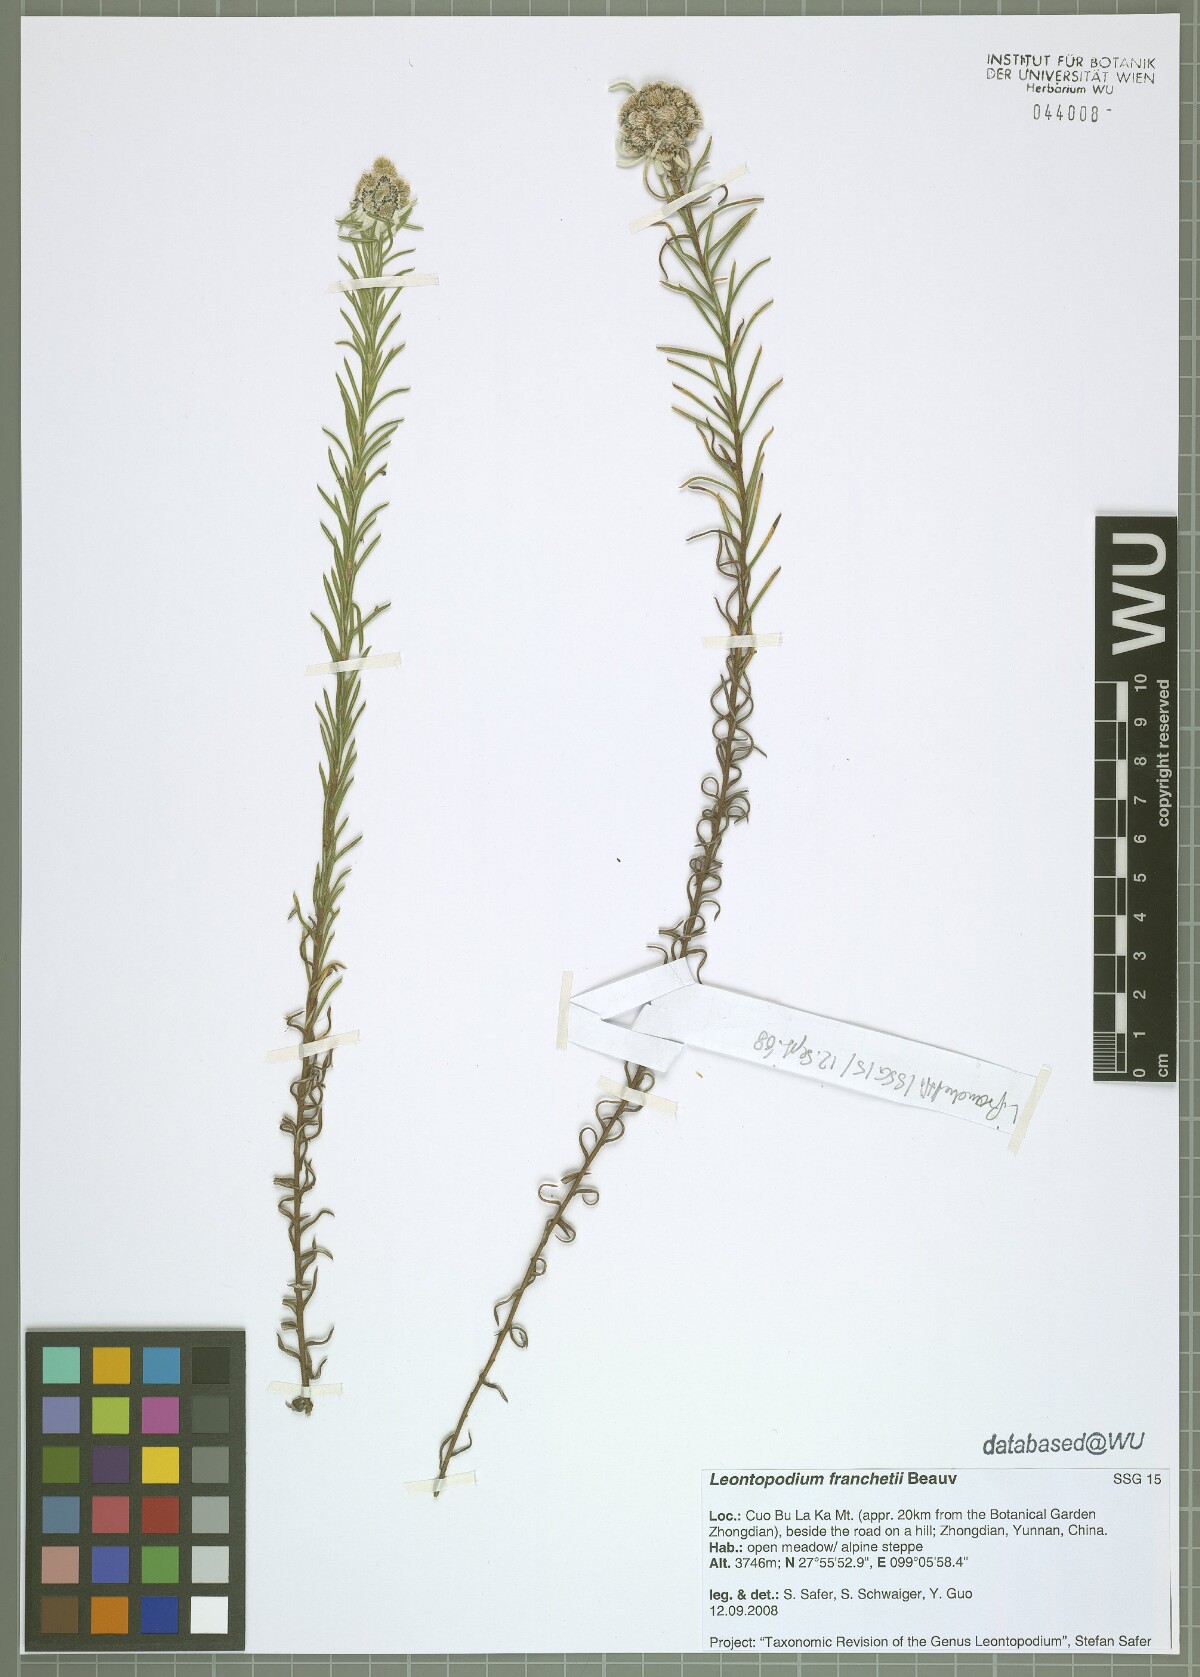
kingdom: Plantae
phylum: Tracheophyta
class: Magnoliopsida
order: Asterales
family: Asteraceae
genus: Leontopodium
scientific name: Leontopodium franchetii
